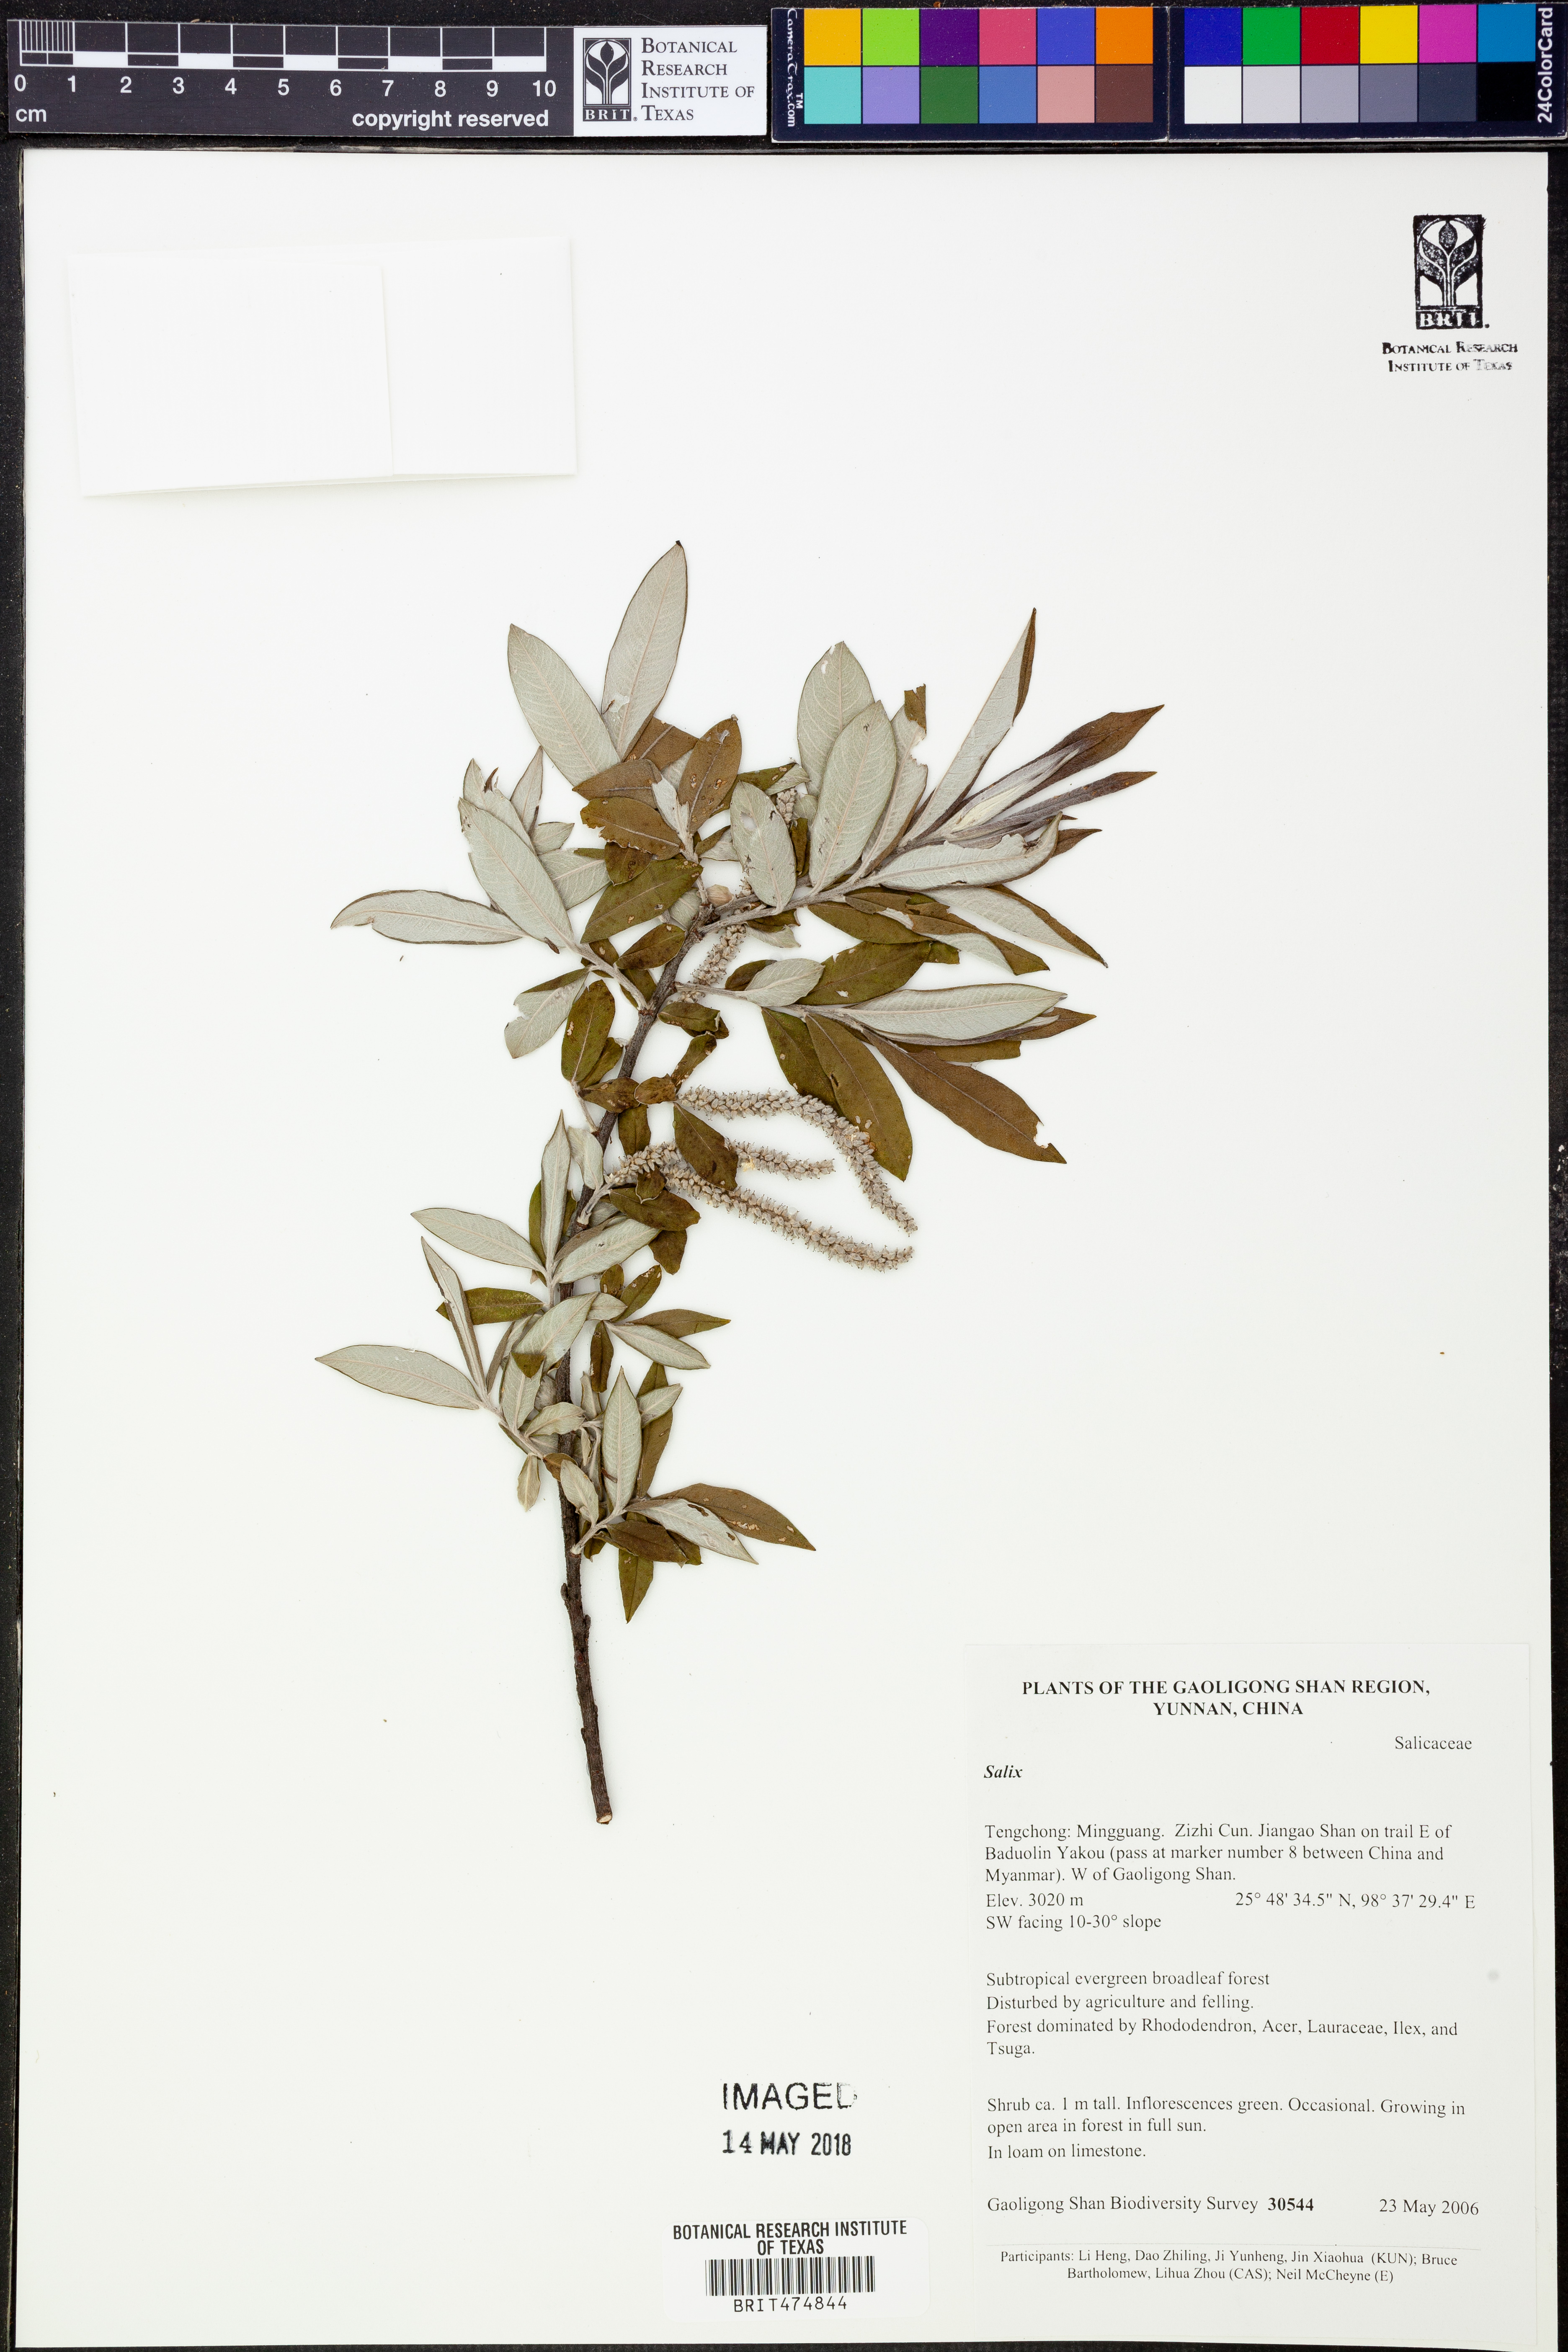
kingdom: Plantae
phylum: Tracheophyta
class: Magnoliopsida
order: Malpighiales
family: Salicaceae
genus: Salix
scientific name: Salix
